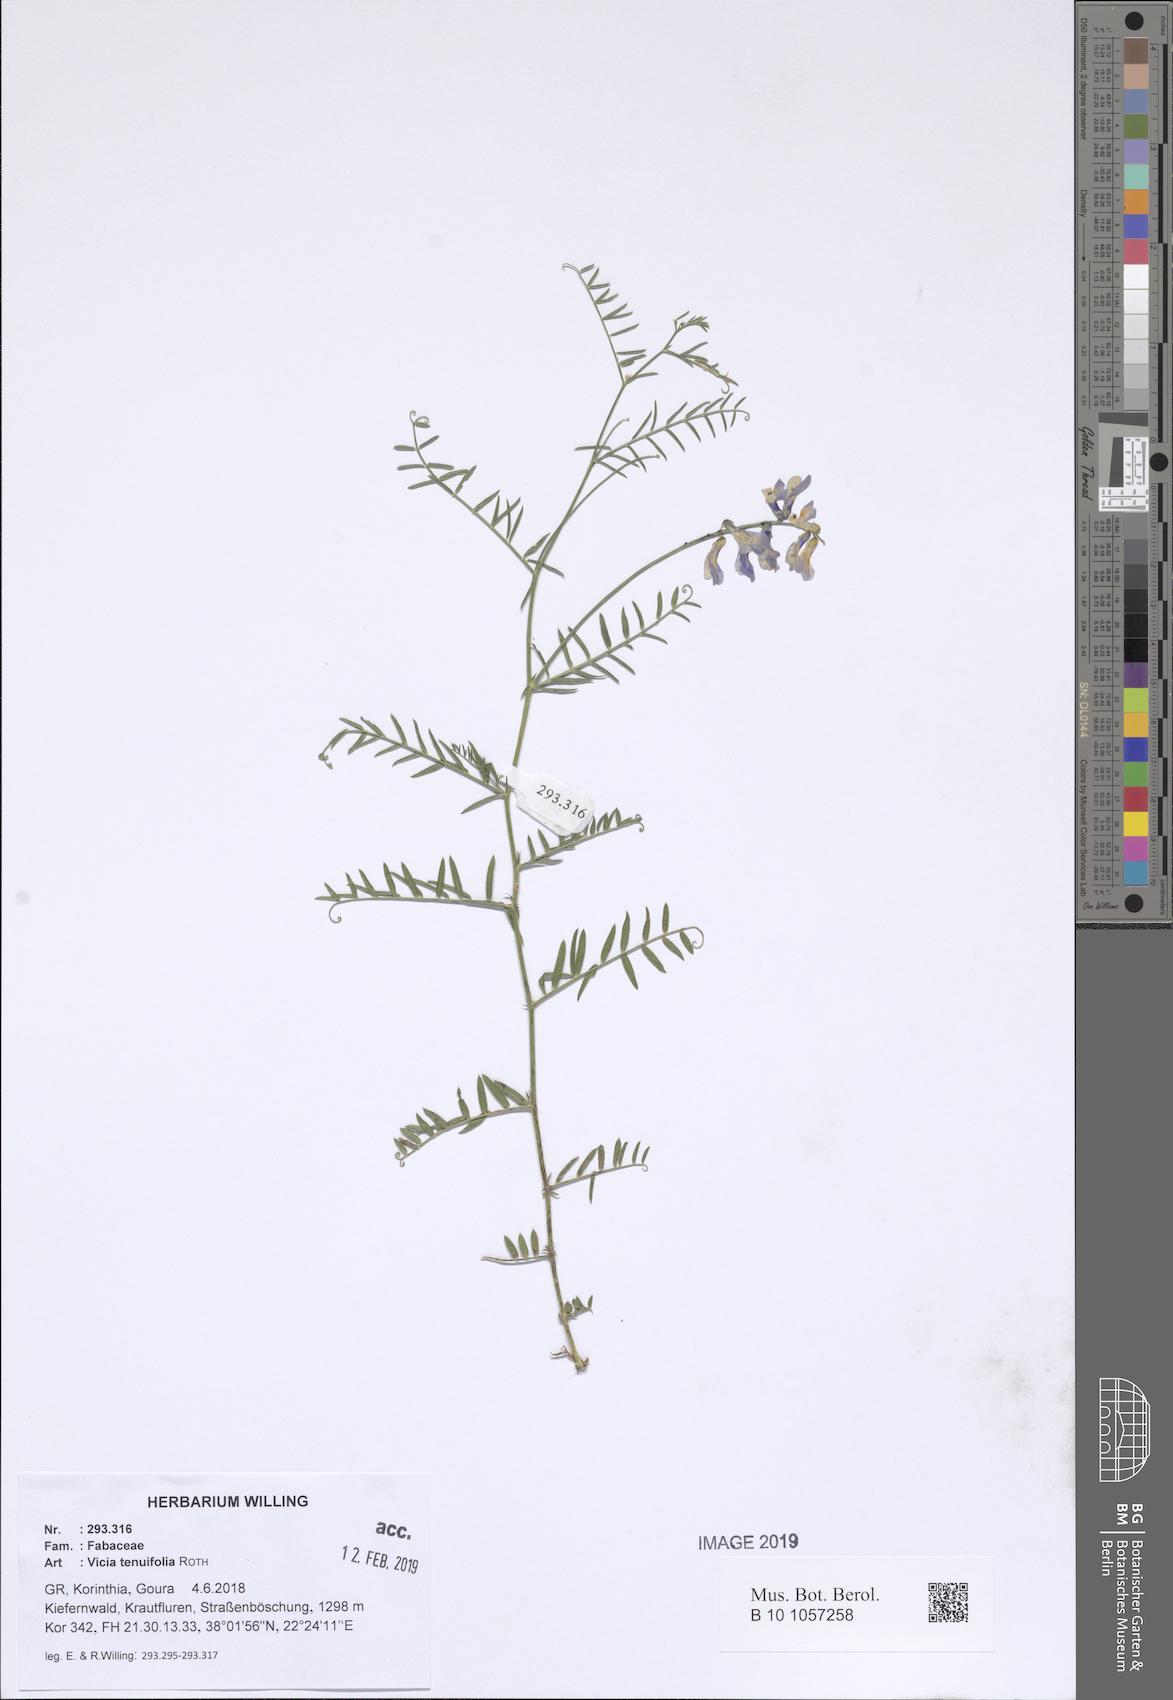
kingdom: Plantae
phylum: Tracheophyta
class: Magnoliopsida
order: Fabales
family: Fabaceae
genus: Vicia
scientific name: Vicia tenuifolia
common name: Fine-leaved vetch
